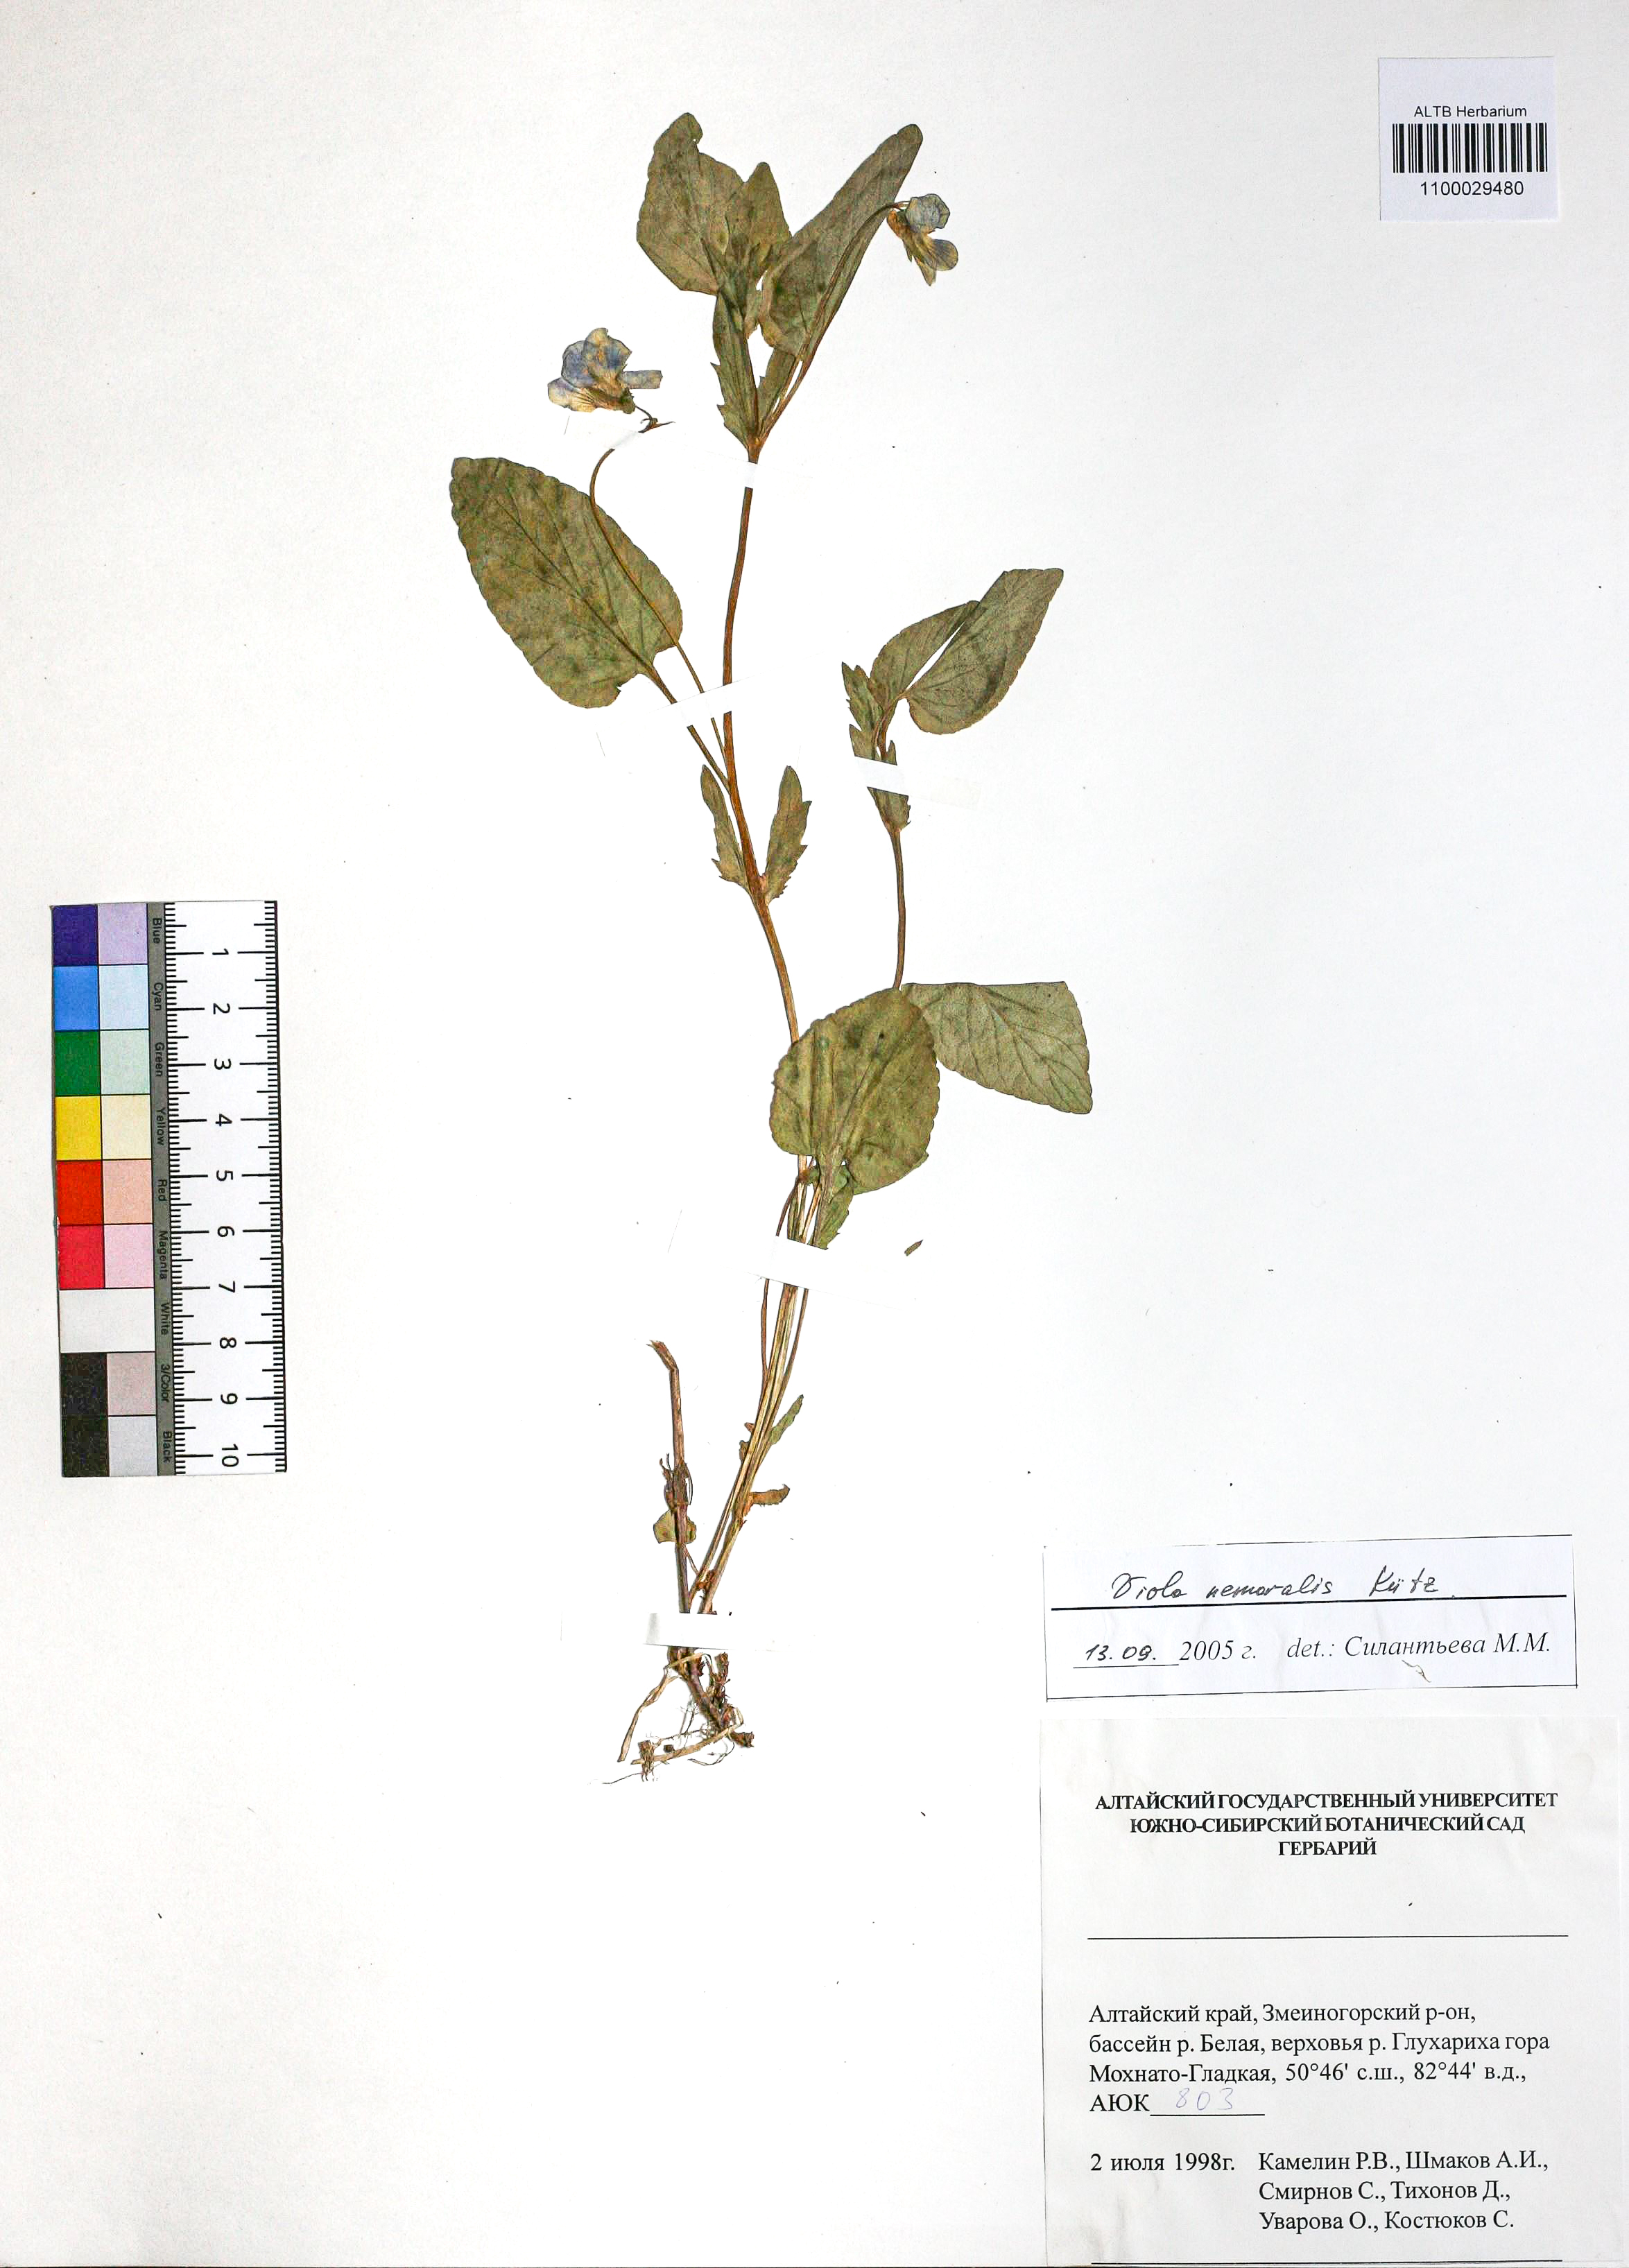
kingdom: Plantae
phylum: Tracheophyta
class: Magnoliopsida
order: Malpighiales
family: Violaceae
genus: Viola
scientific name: Viola ruppii
